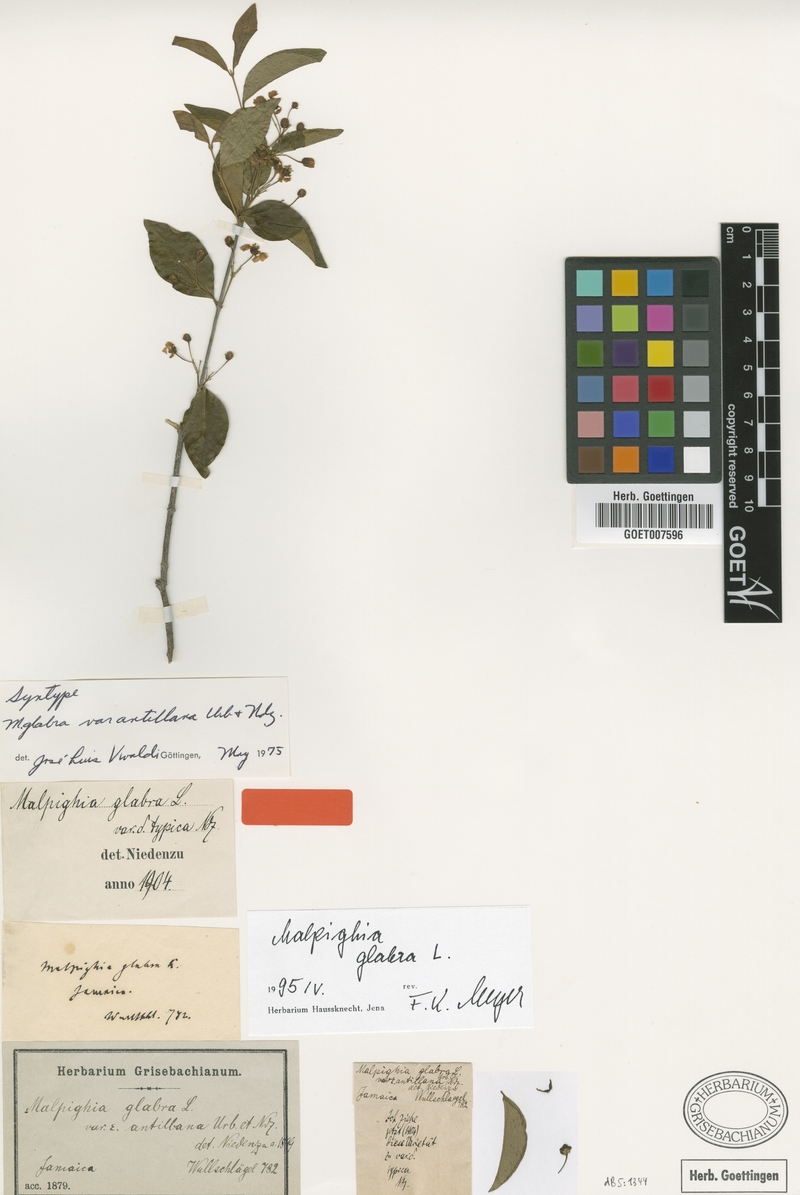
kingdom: Plantae
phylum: Tracheophyta
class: Magnoliopsida
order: Malpighiales
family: Malpighiaceae
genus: Malpighia
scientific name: Malpighia glabra
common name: Barbados cherry
